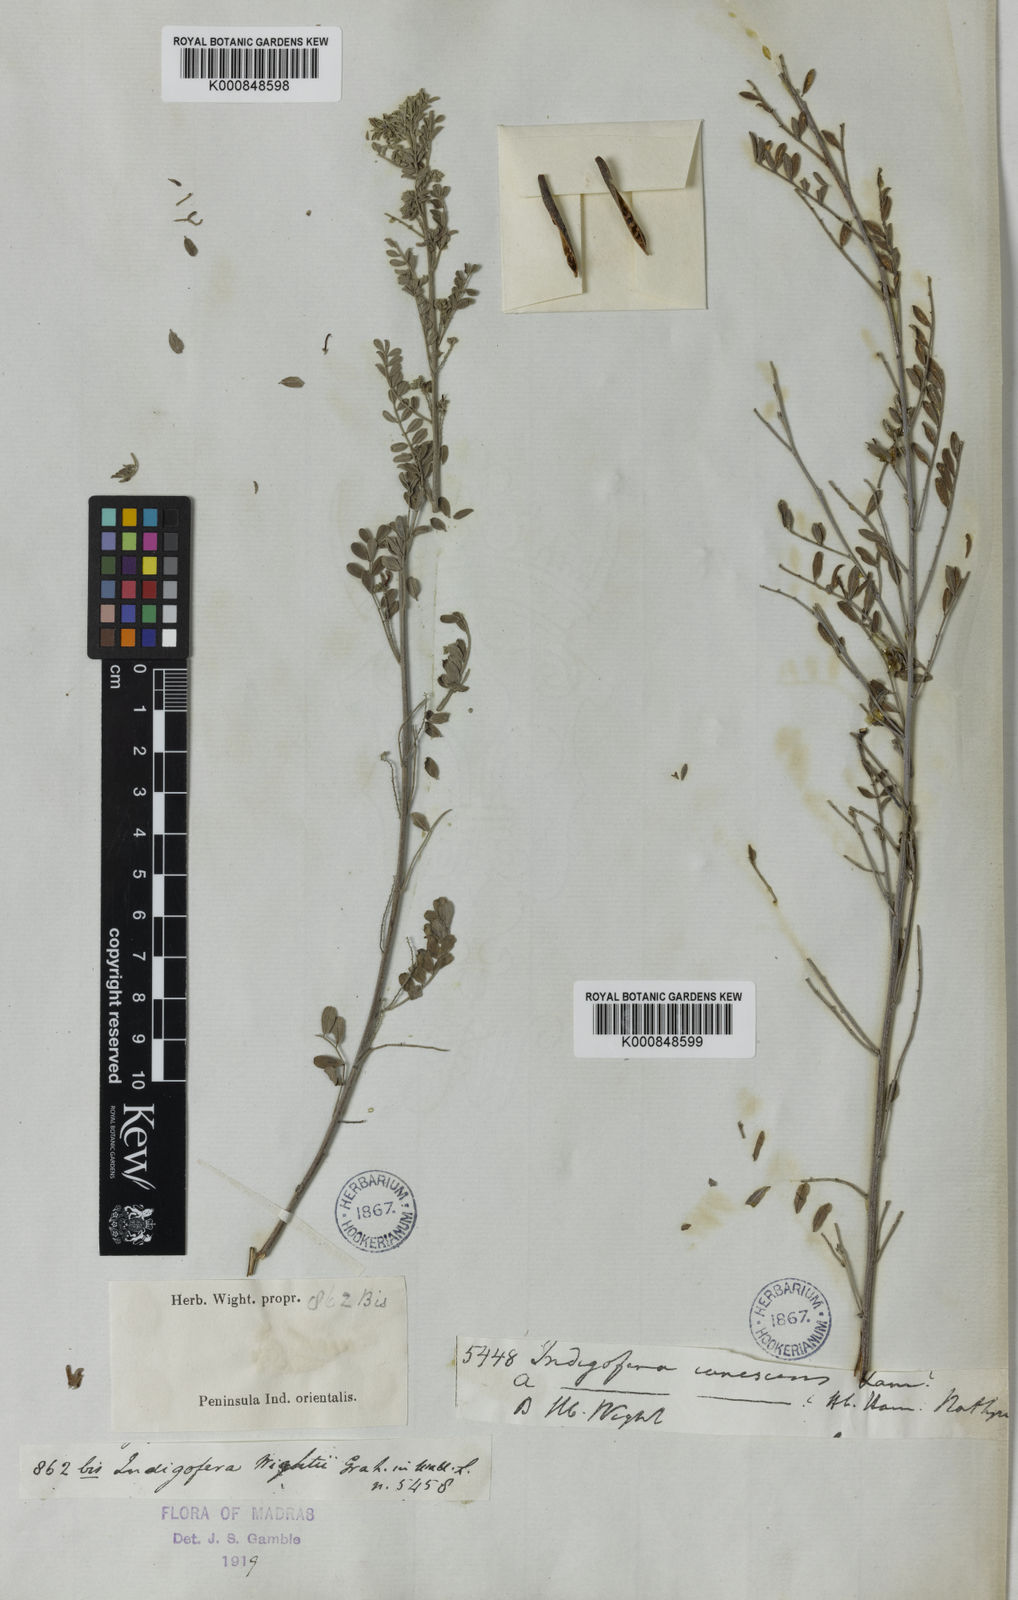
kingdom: Plantae
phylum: Tracheophyta
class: Magnoliopsida
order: Fabales
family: Fabaceae
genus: Indigofera
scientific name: Indigofera
